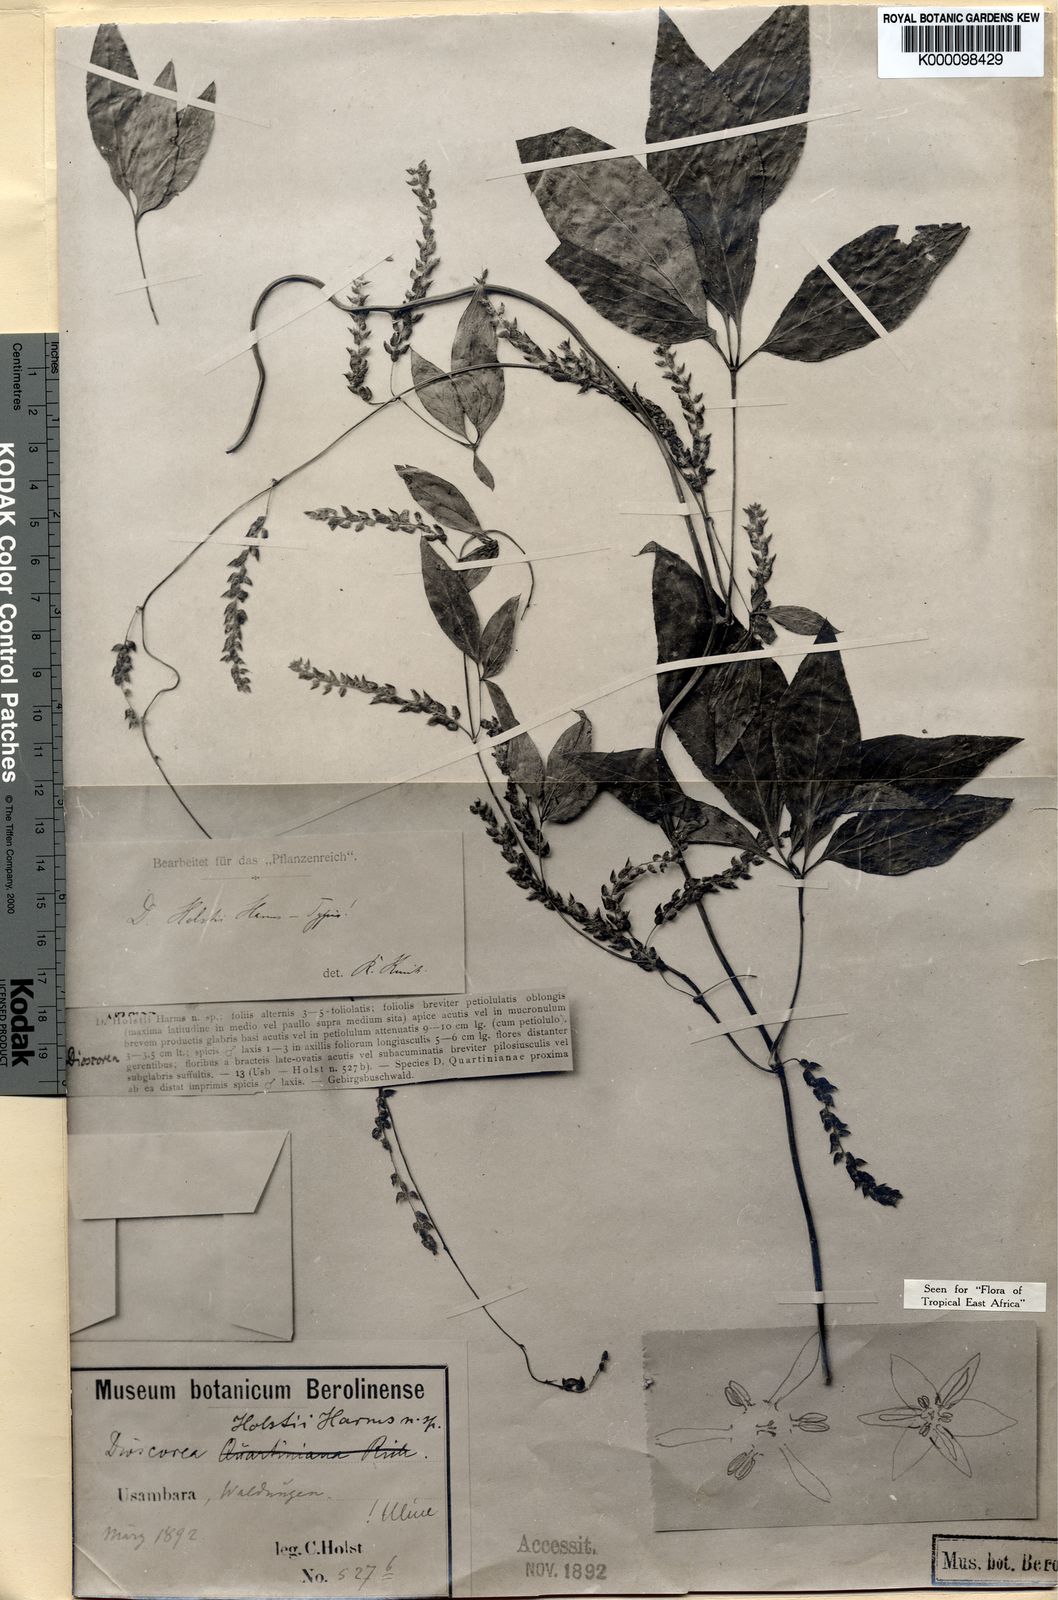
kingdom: Plantae
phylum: Tracheophyta
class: Liliopsida
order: Dioscoreales
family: Dioscoreaceae
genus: Dioscorea
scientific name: Dioscorea quartiniana
